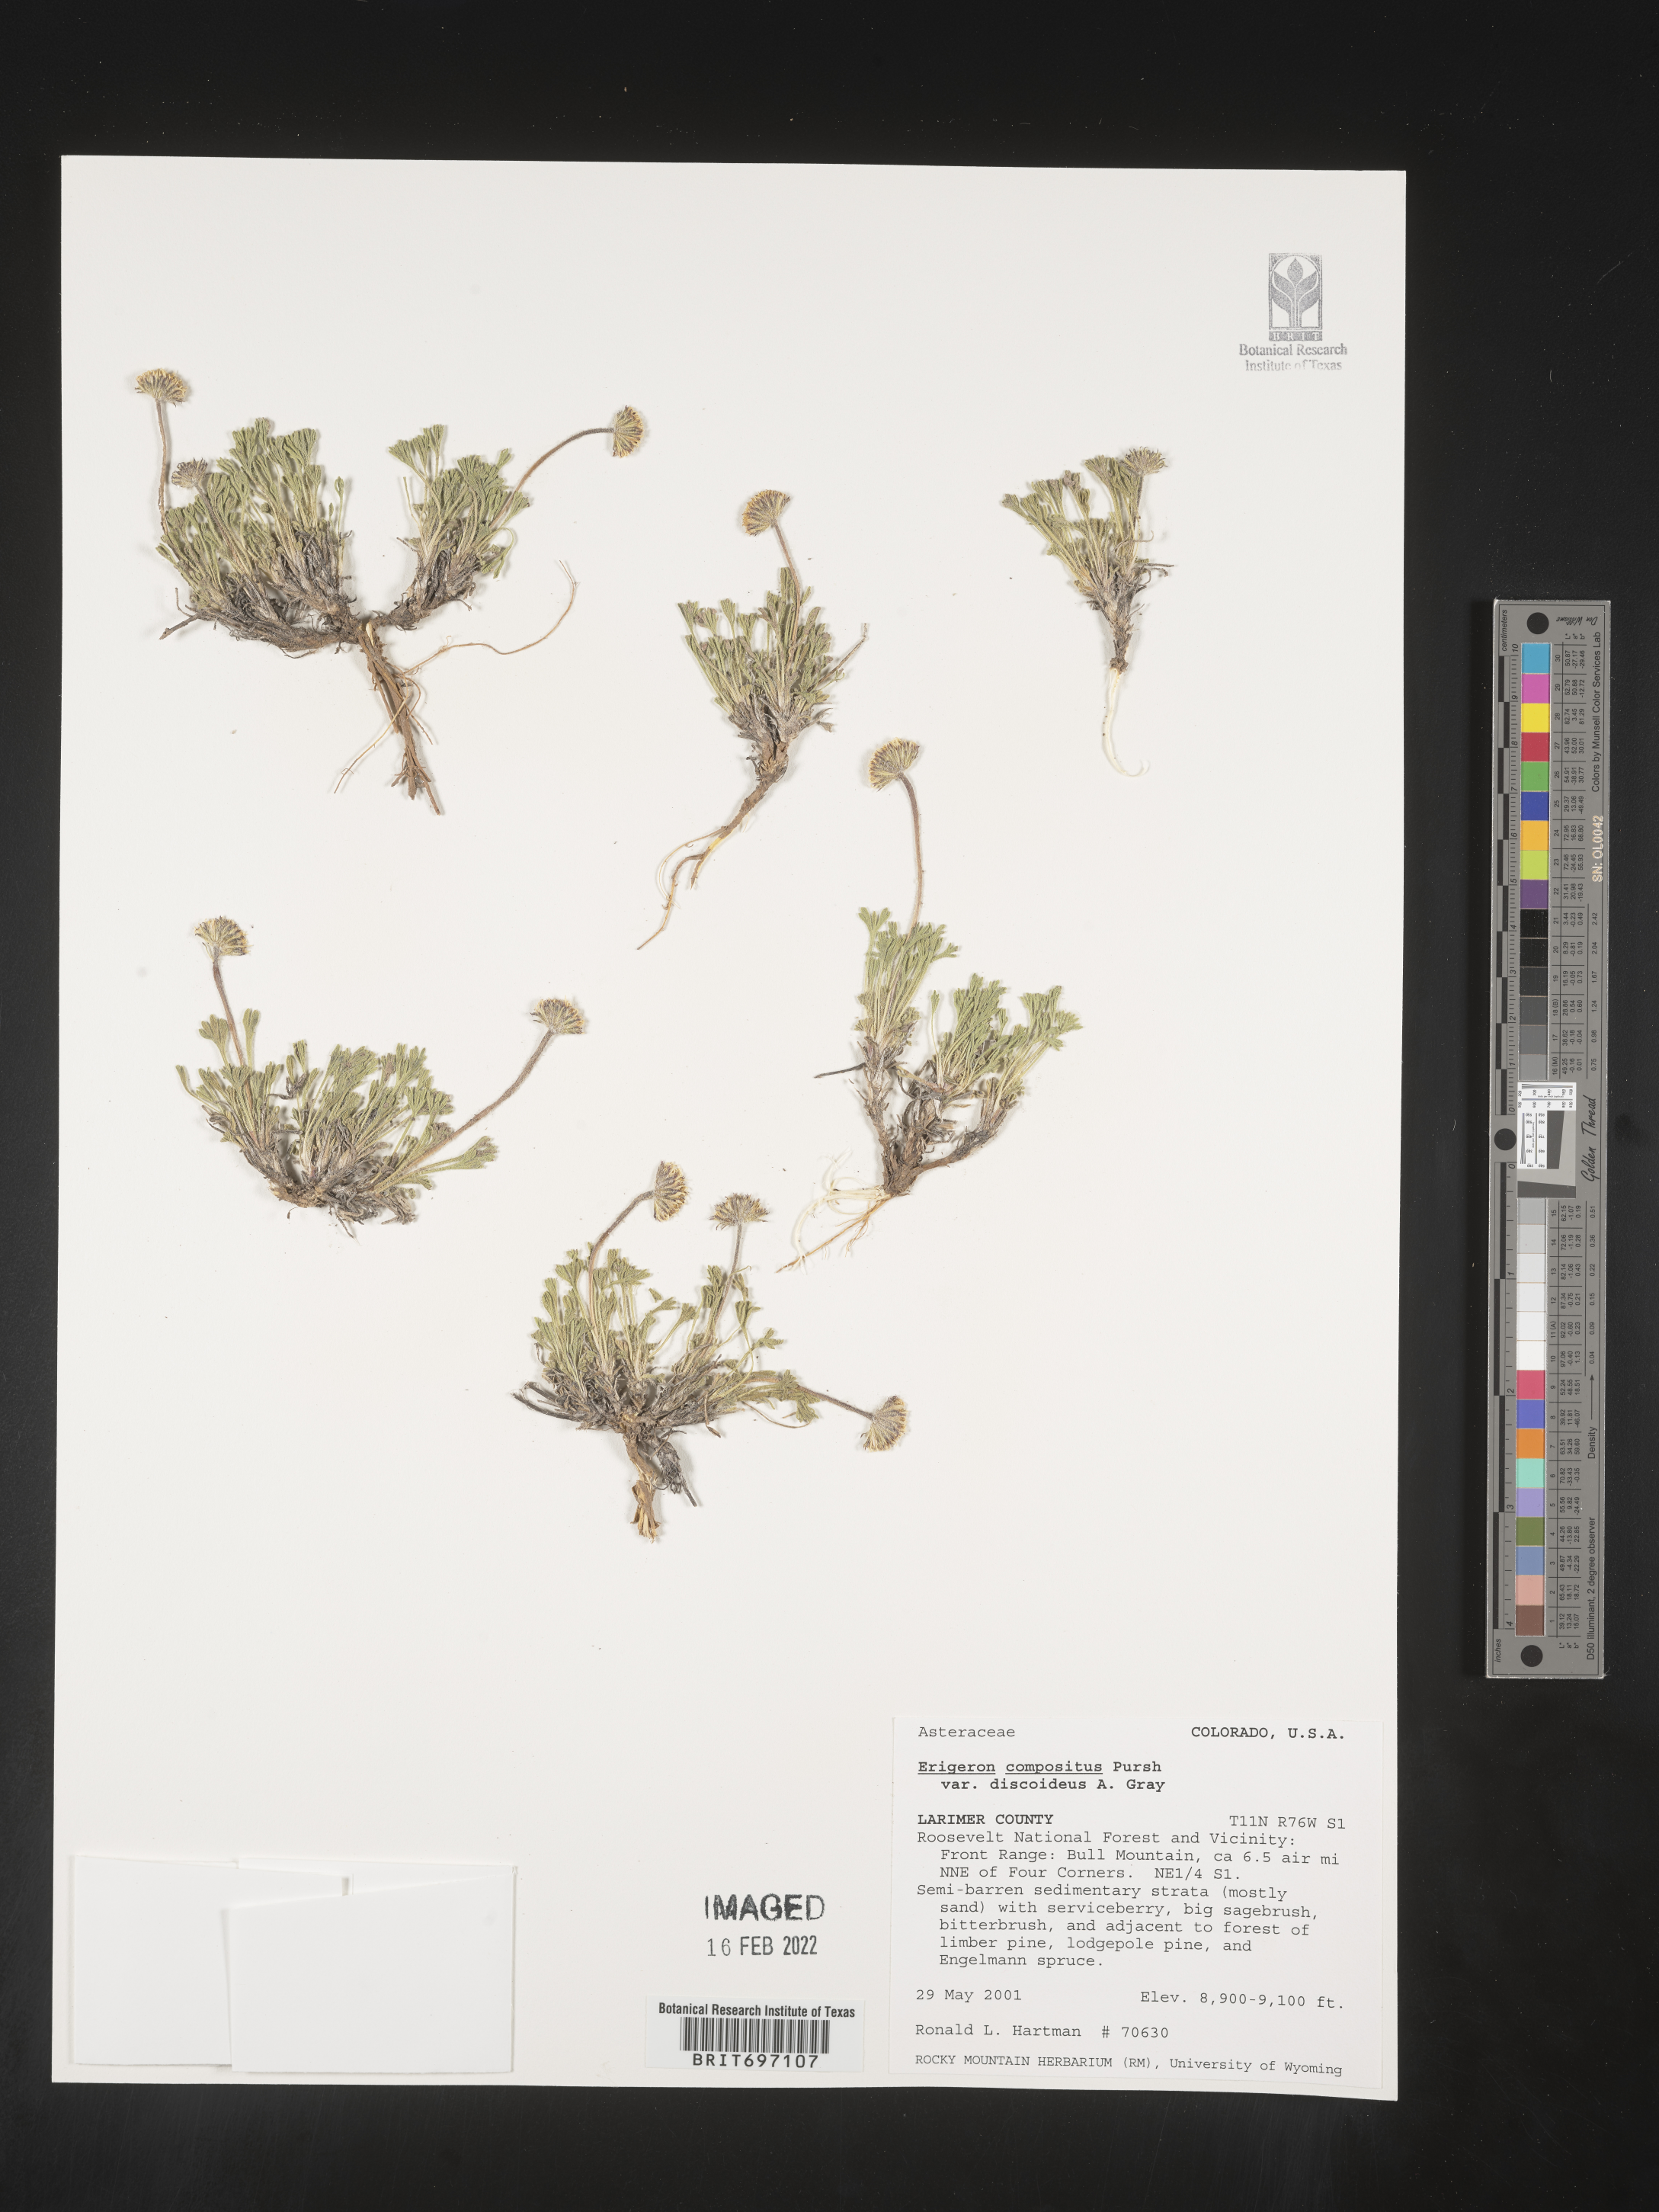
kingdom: Plantae
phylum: Tracheophyta
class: Magnoliopsida
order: Asterales
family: Asteraceae
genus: Erigeron
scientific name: Erigeron compositus
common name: Dwarf mountain fleabane
